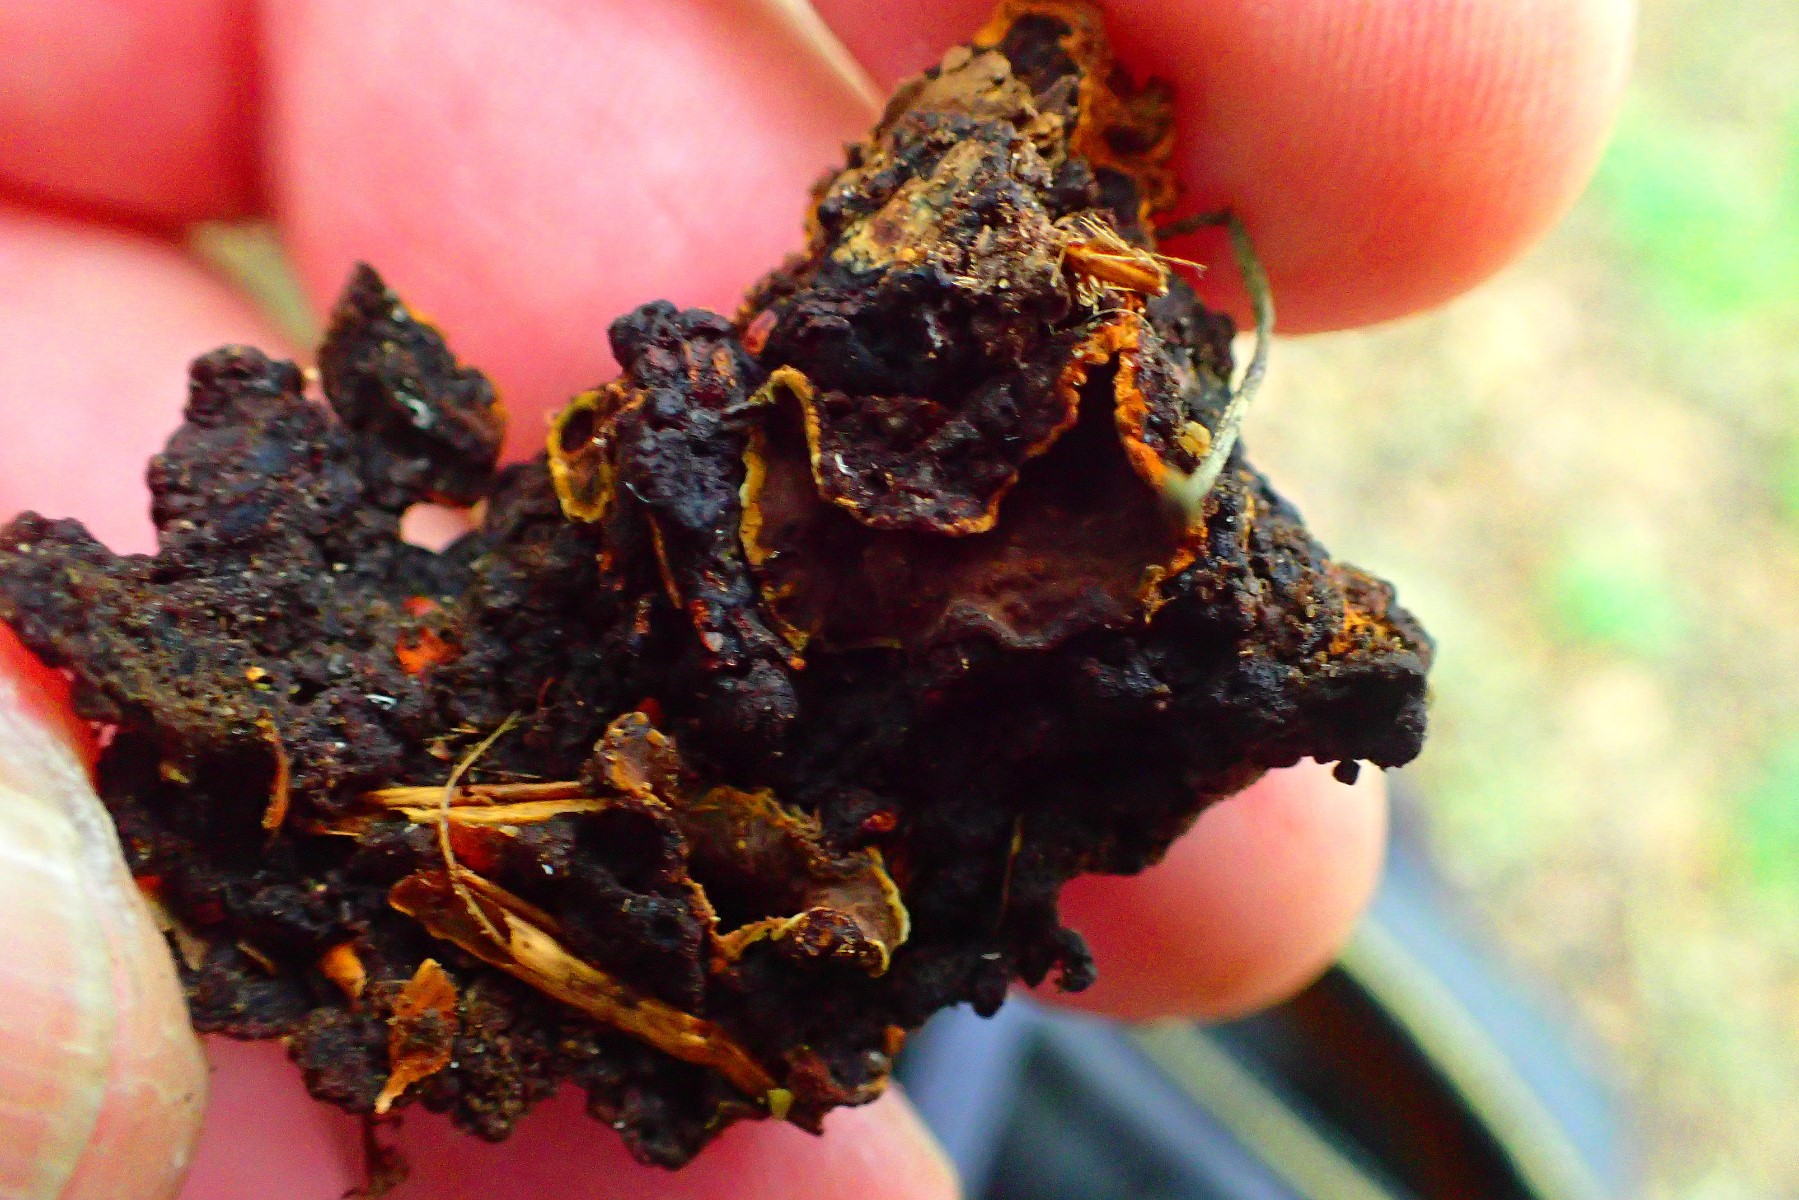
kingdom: Fungi
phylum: Basidiomycota
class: Agaricomycetes
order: Hymenochaetales
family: Hymenochaetaceae
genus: Hymenochaete
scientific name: Hymenochaete rubiginosa
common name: stiv ruslædersvamp
